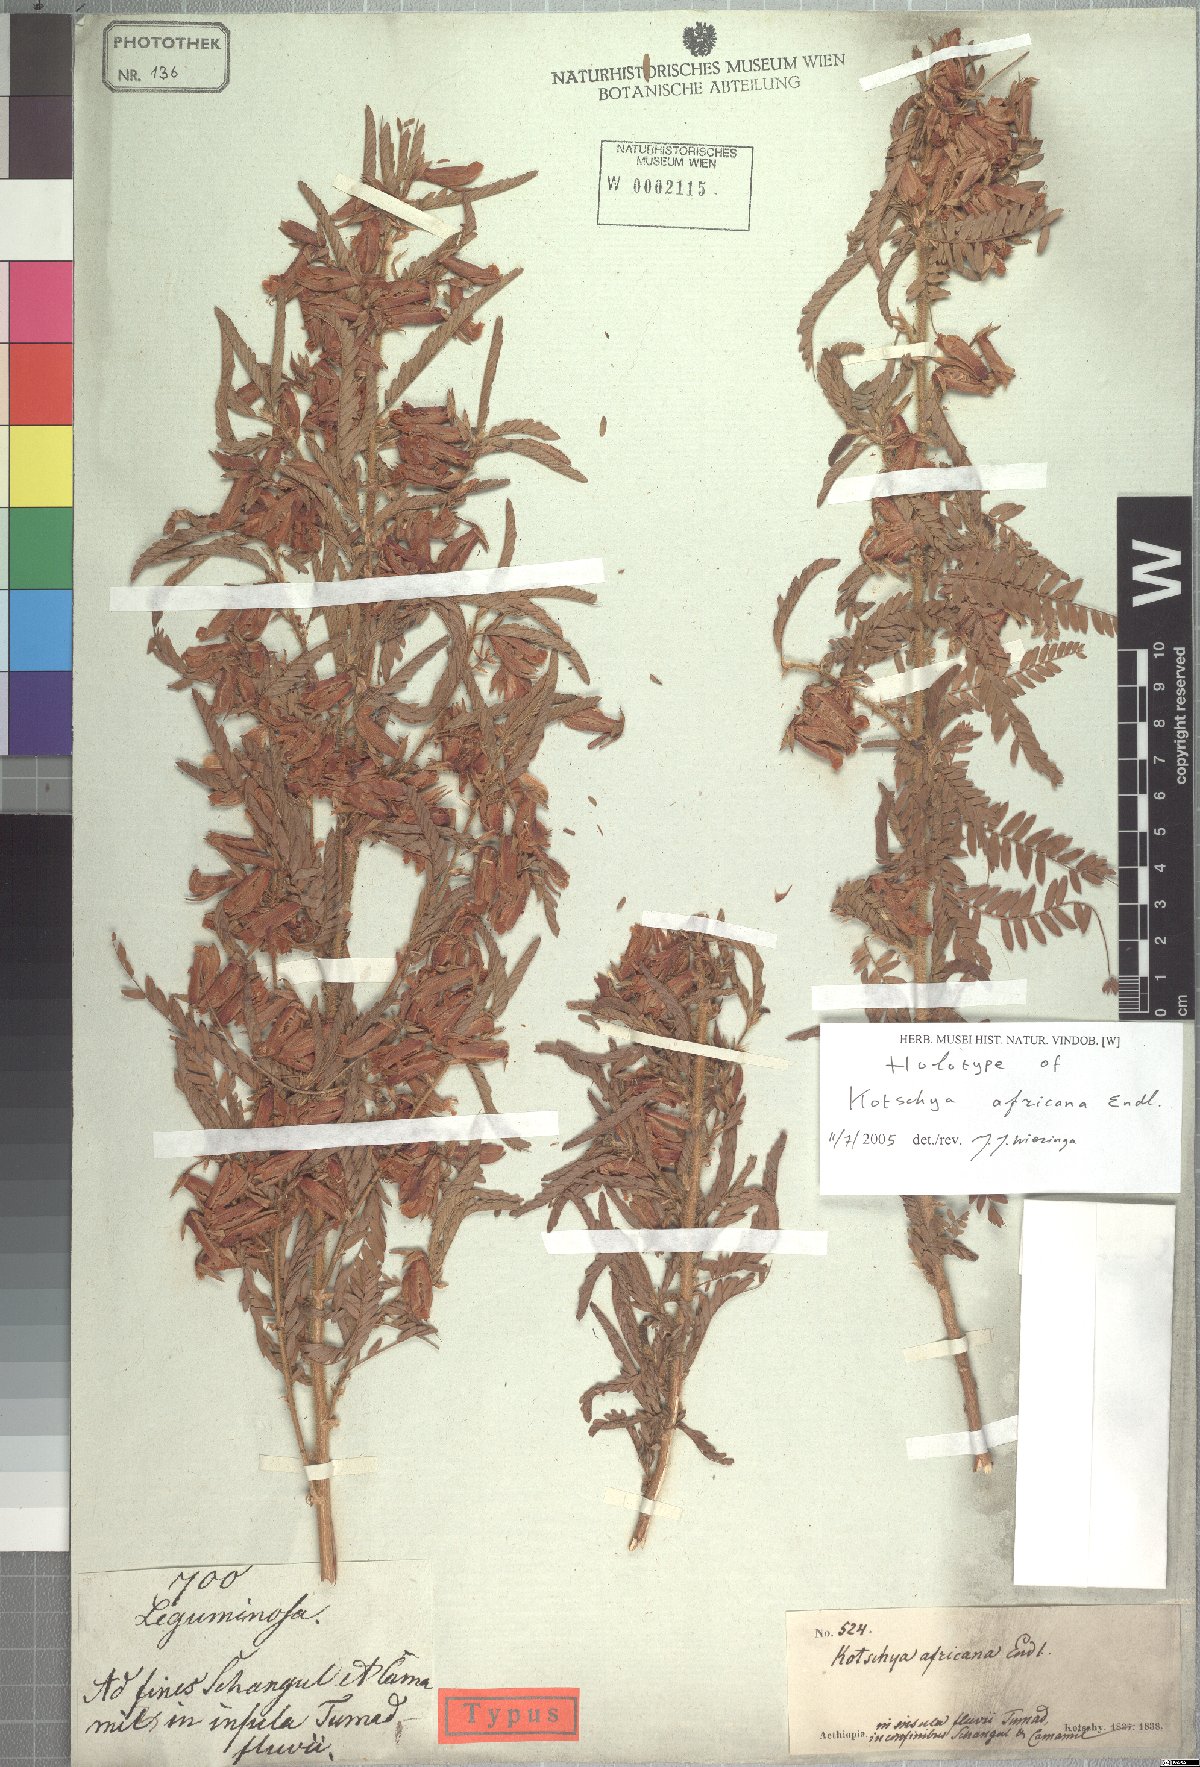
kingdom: Plantae
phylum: Tracheophyta
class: Magnoliopsida
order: Fabales
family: Fabaceae
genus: Kotschya
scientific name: Kotschya africana
